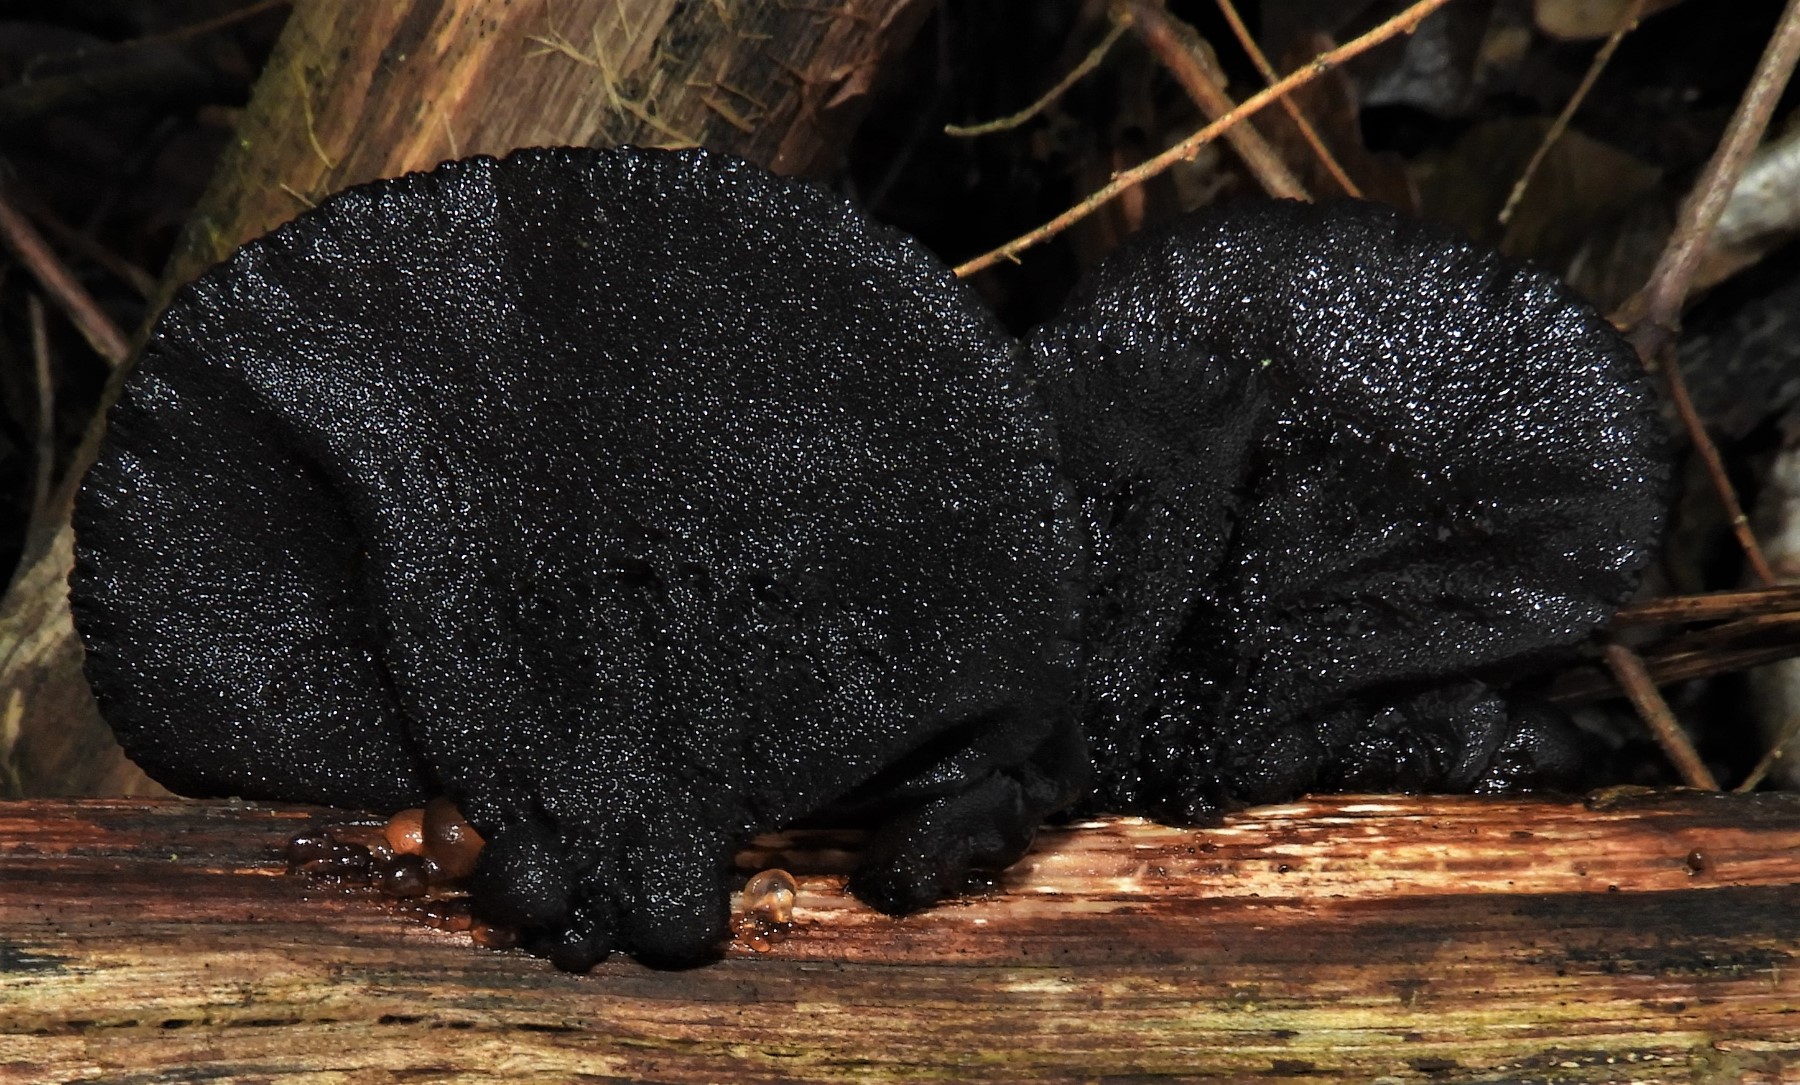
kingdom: Fungi
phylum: Basidiomycota
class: Agaricomycetes
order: Auriculariales
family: Auriculariaceae
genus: Exidia
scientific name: Exidia glandulosa
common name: ege-bævretop
